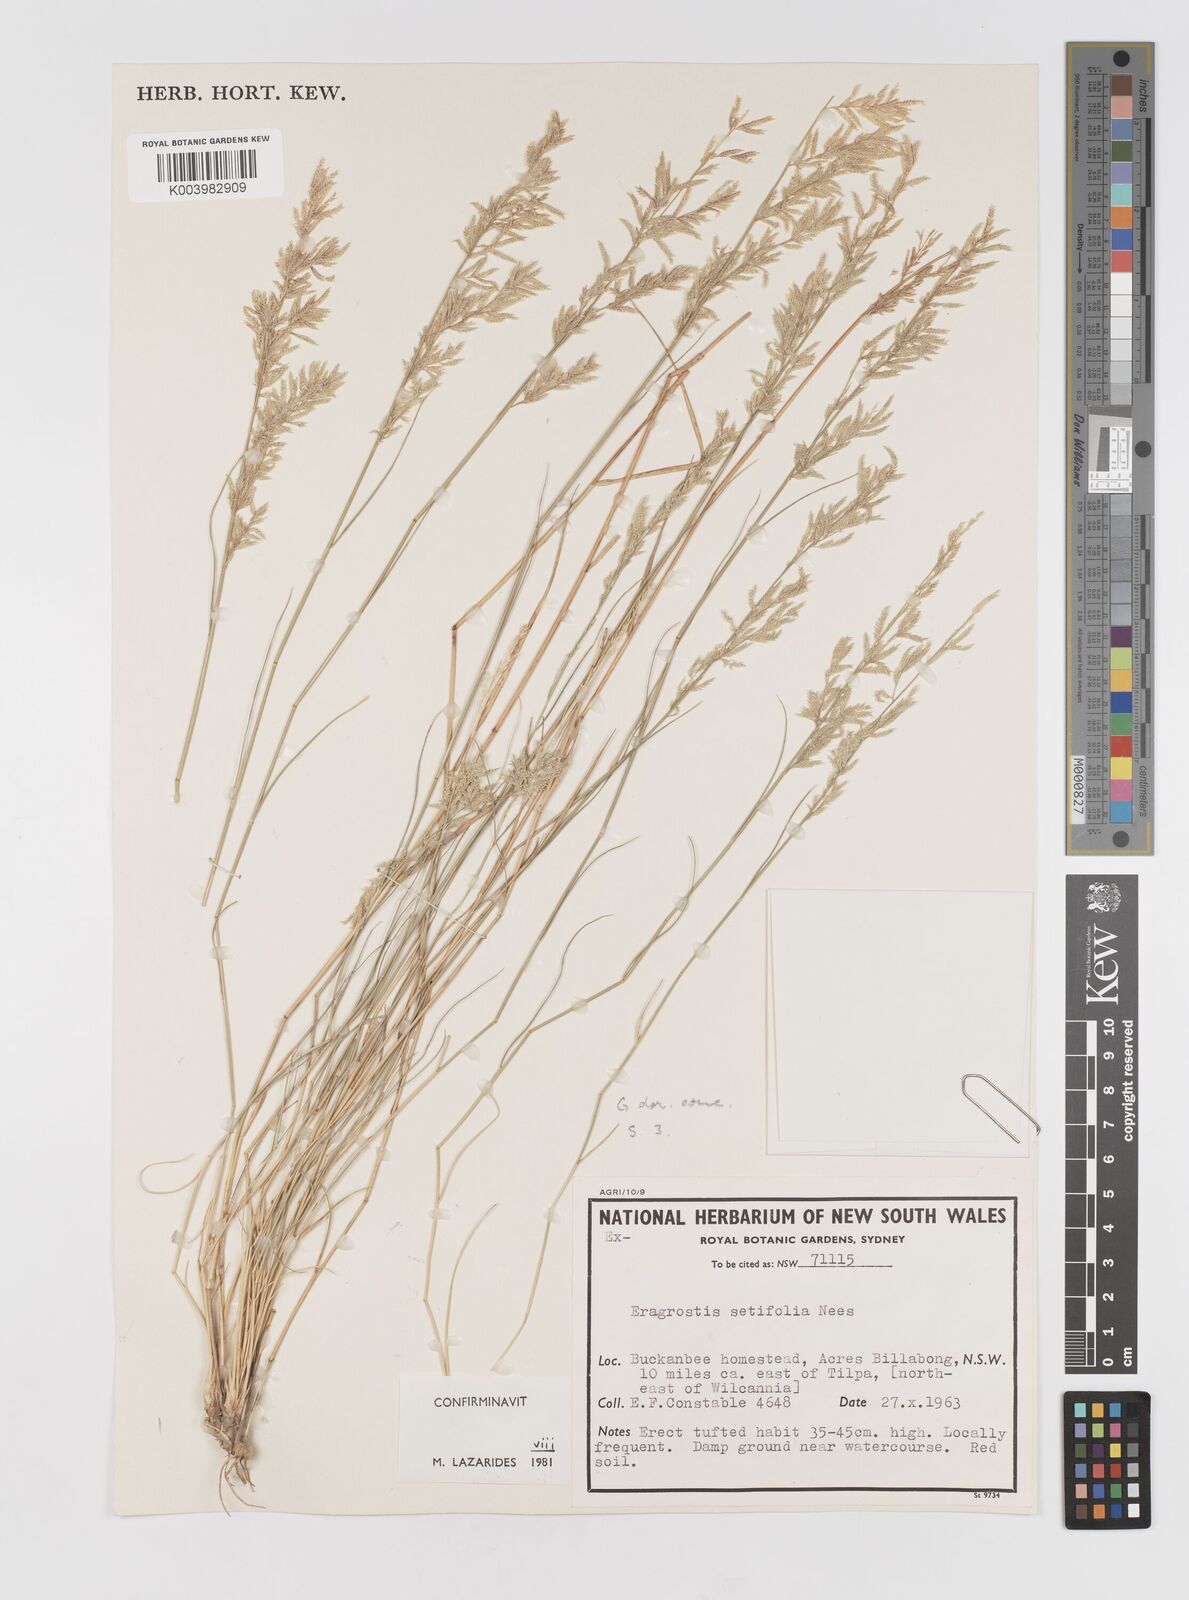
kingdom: Plantae
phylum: Tracheophyta
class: Liliopsida
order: Poales
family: Poaceae
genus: Eragrostis
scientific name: Eragrostis setifolia
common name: Bristleleaf lovegrass
